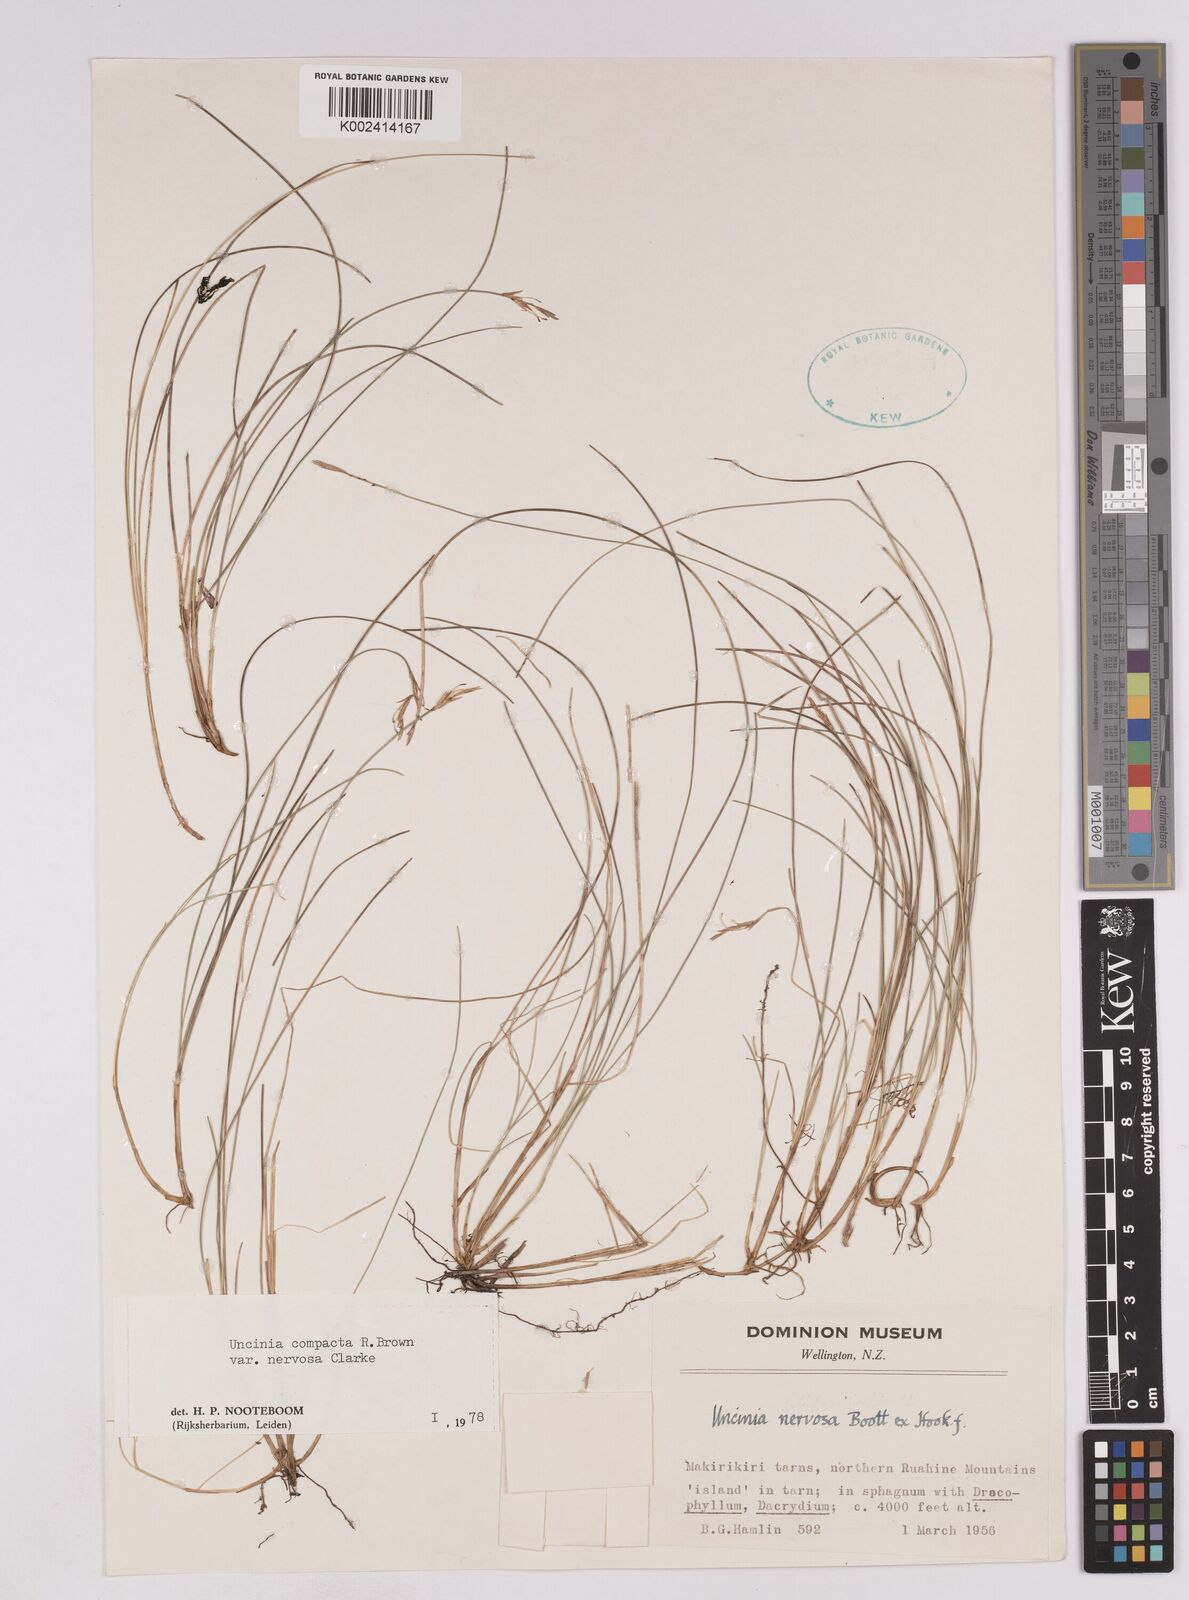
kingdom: Plantae
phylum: Tracheophyta
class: Liliopsida
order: Poales
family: Cyperaceae
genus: Carex
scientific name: Carex cheesemanniana
